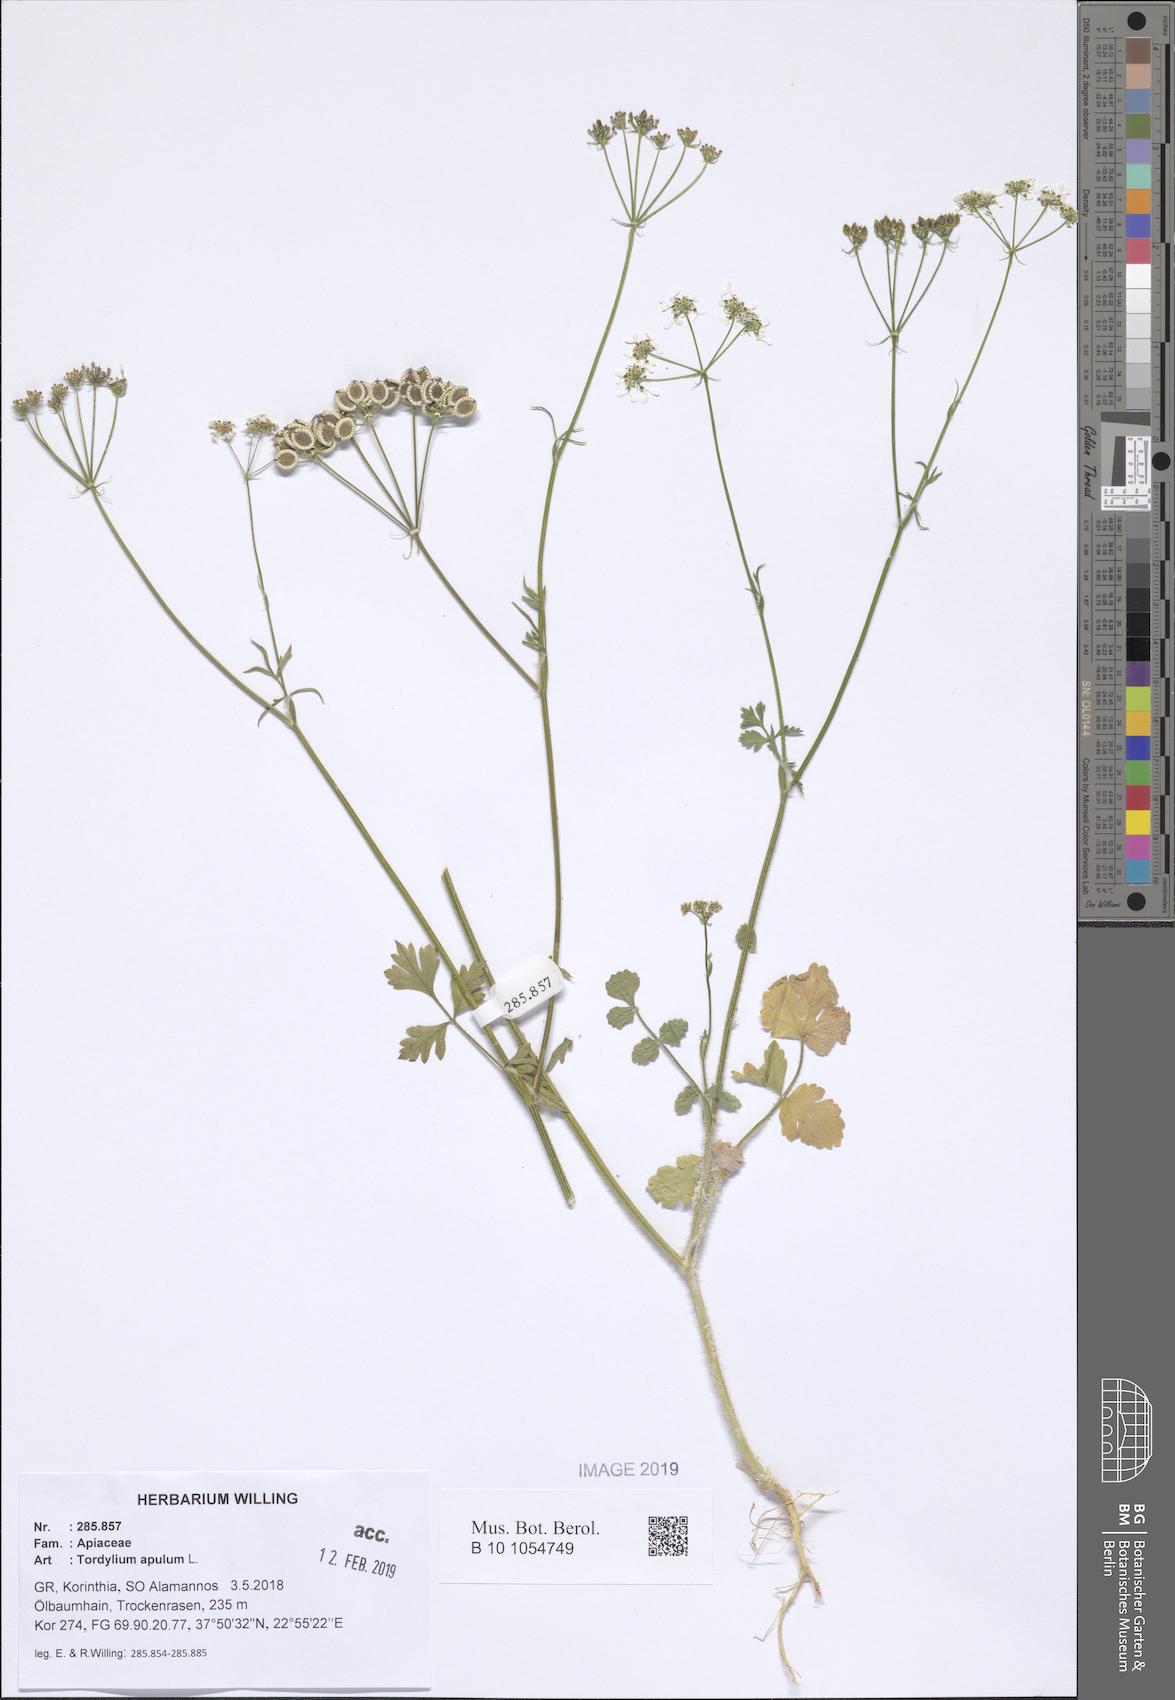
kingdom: Plantae
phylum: Tracheophyta
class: Magnoliopsida
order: Apiales
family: Apiaceae
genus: Tordylium
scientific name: Tordylium apulum
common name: Mediterranean hartwort
